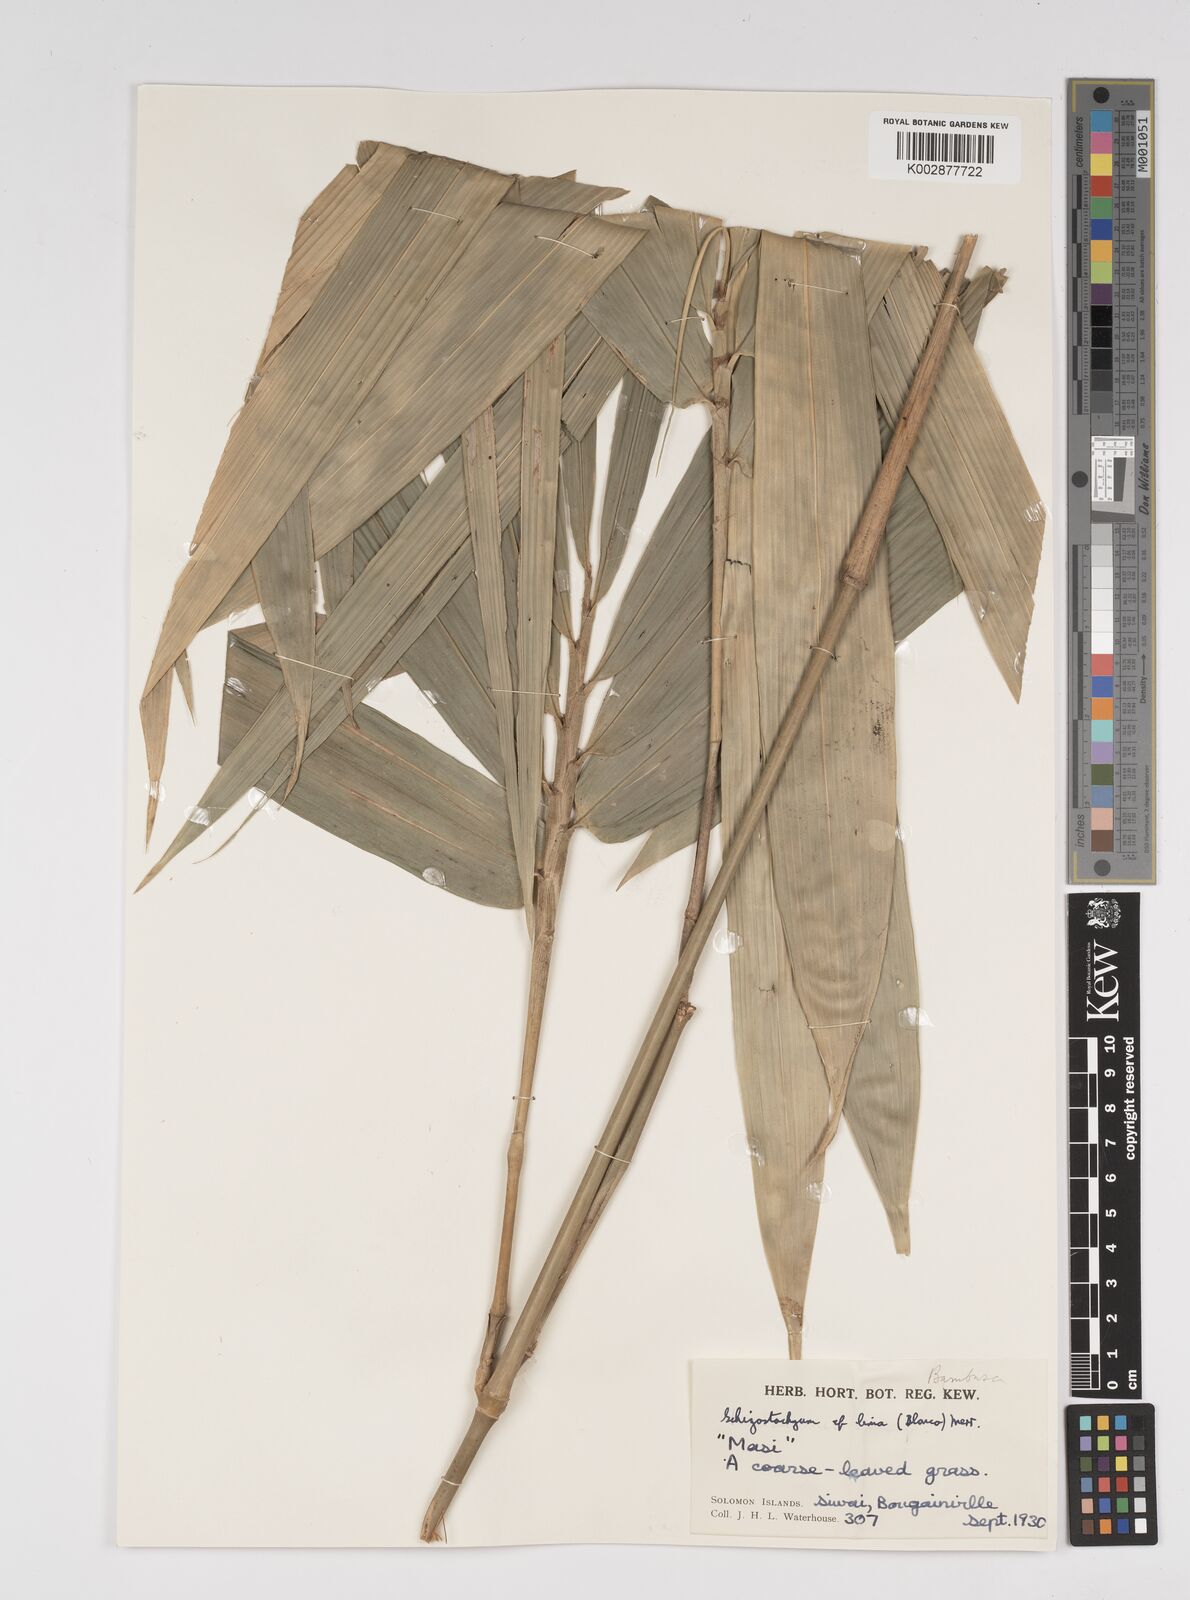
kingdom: Plantae
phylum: Tracheophyta
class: Liliopsida
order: Poales
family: Poaceae
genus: Bambusa
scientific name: Bambusa solomonensis
